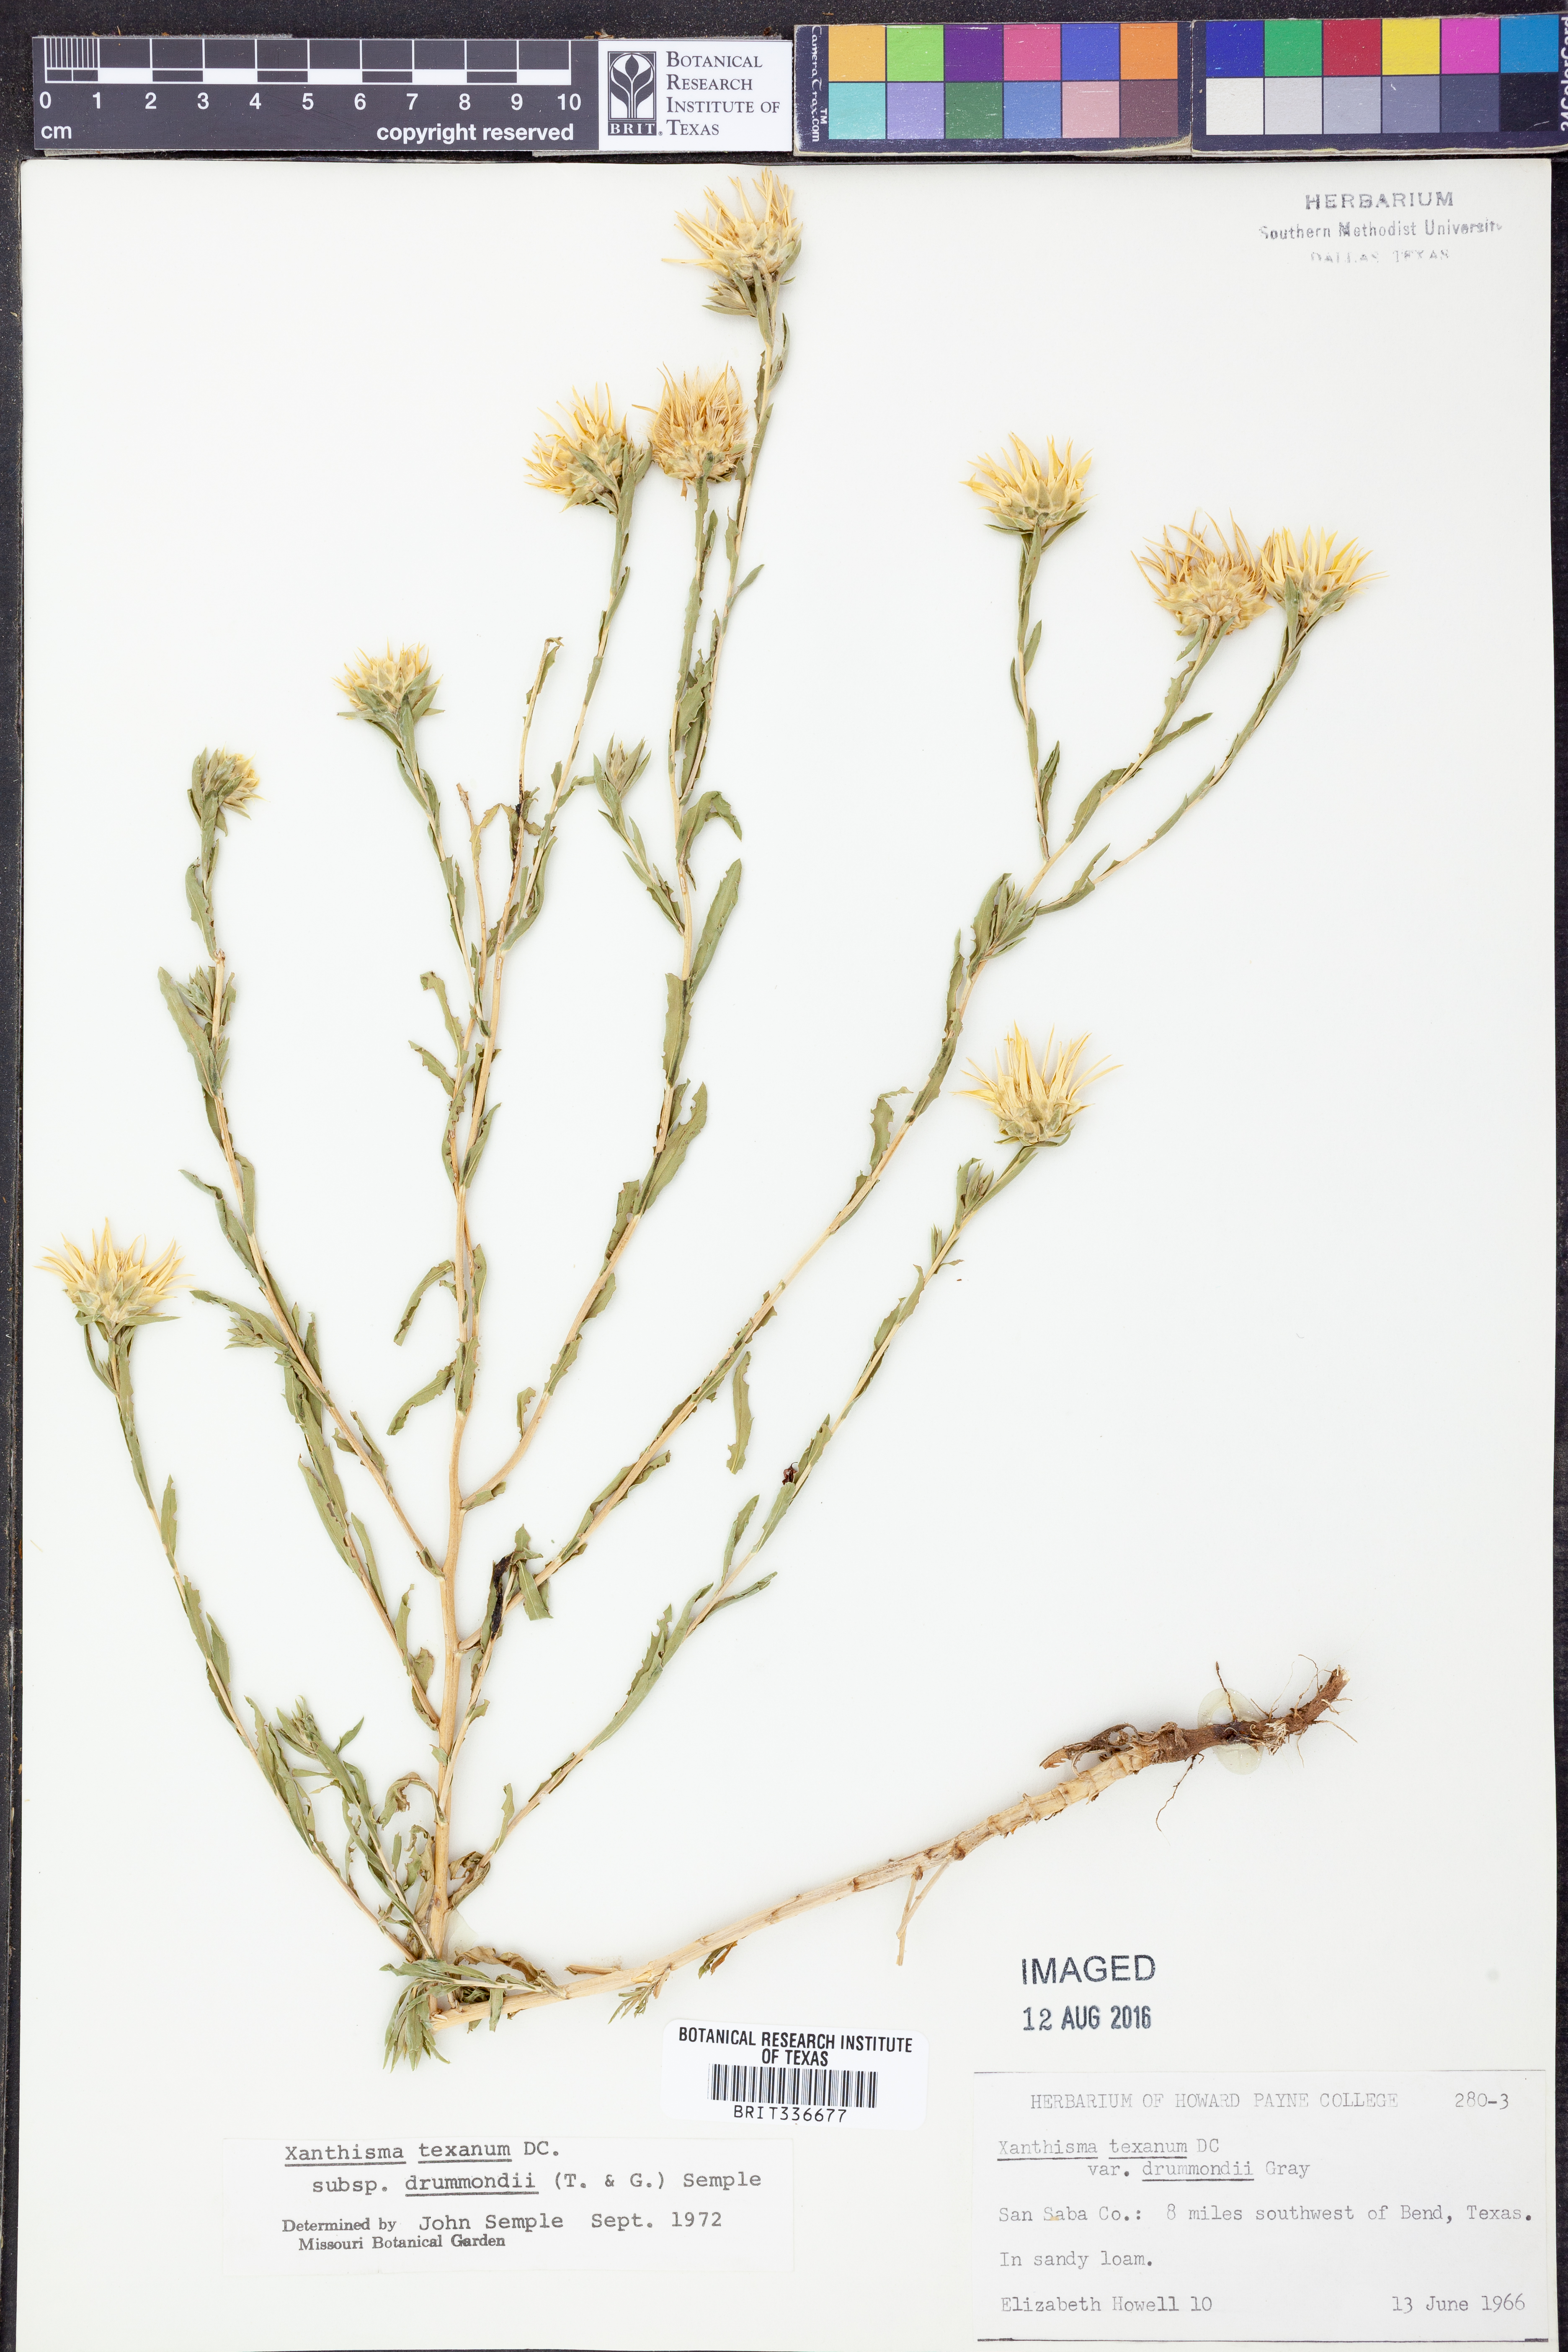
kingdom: Plantae
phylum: Tracheophyta
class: Magnoliopsida
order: Asterales
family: Asteraceae
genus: Xanthisma
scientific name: Xanthisma texanum
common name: Texas sleepy daisy
